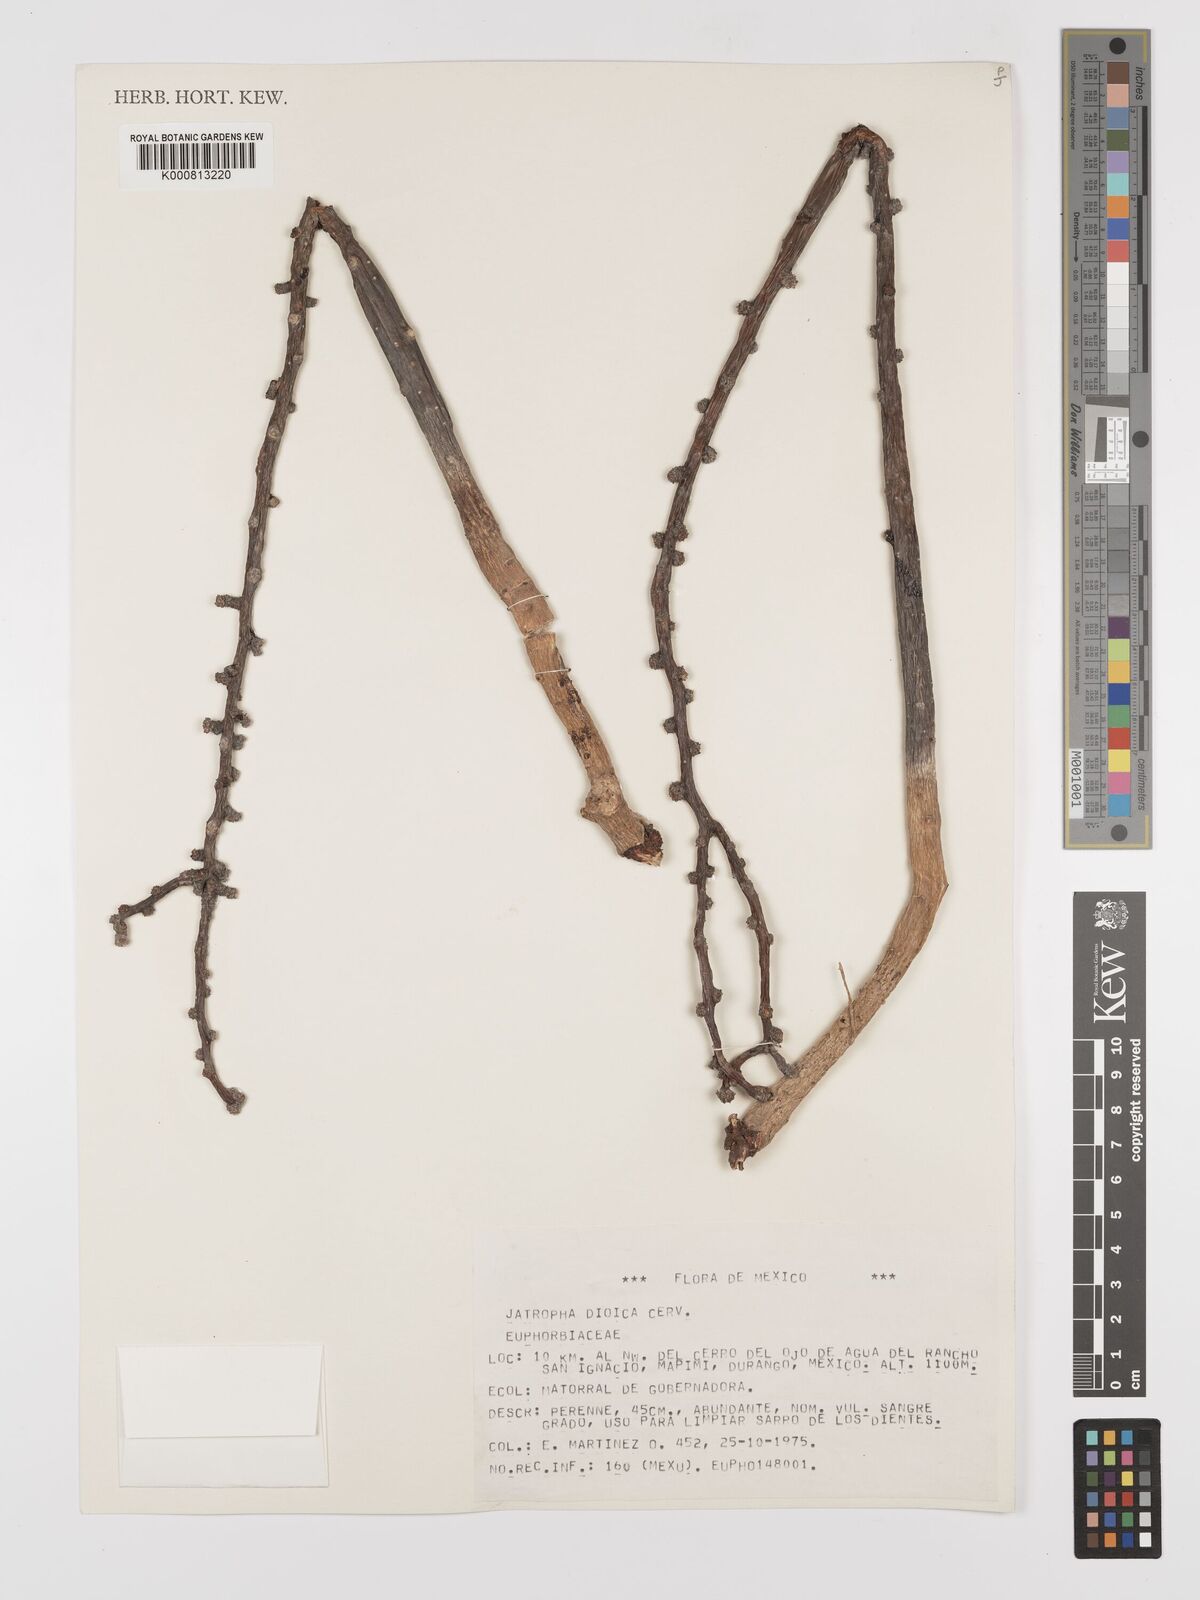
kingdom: Plantae
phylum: Tracheophyta
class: Magnoliopsida
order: Malpighiales
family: Euphorbiaceae
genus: Jatropha
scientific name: Jatropha
